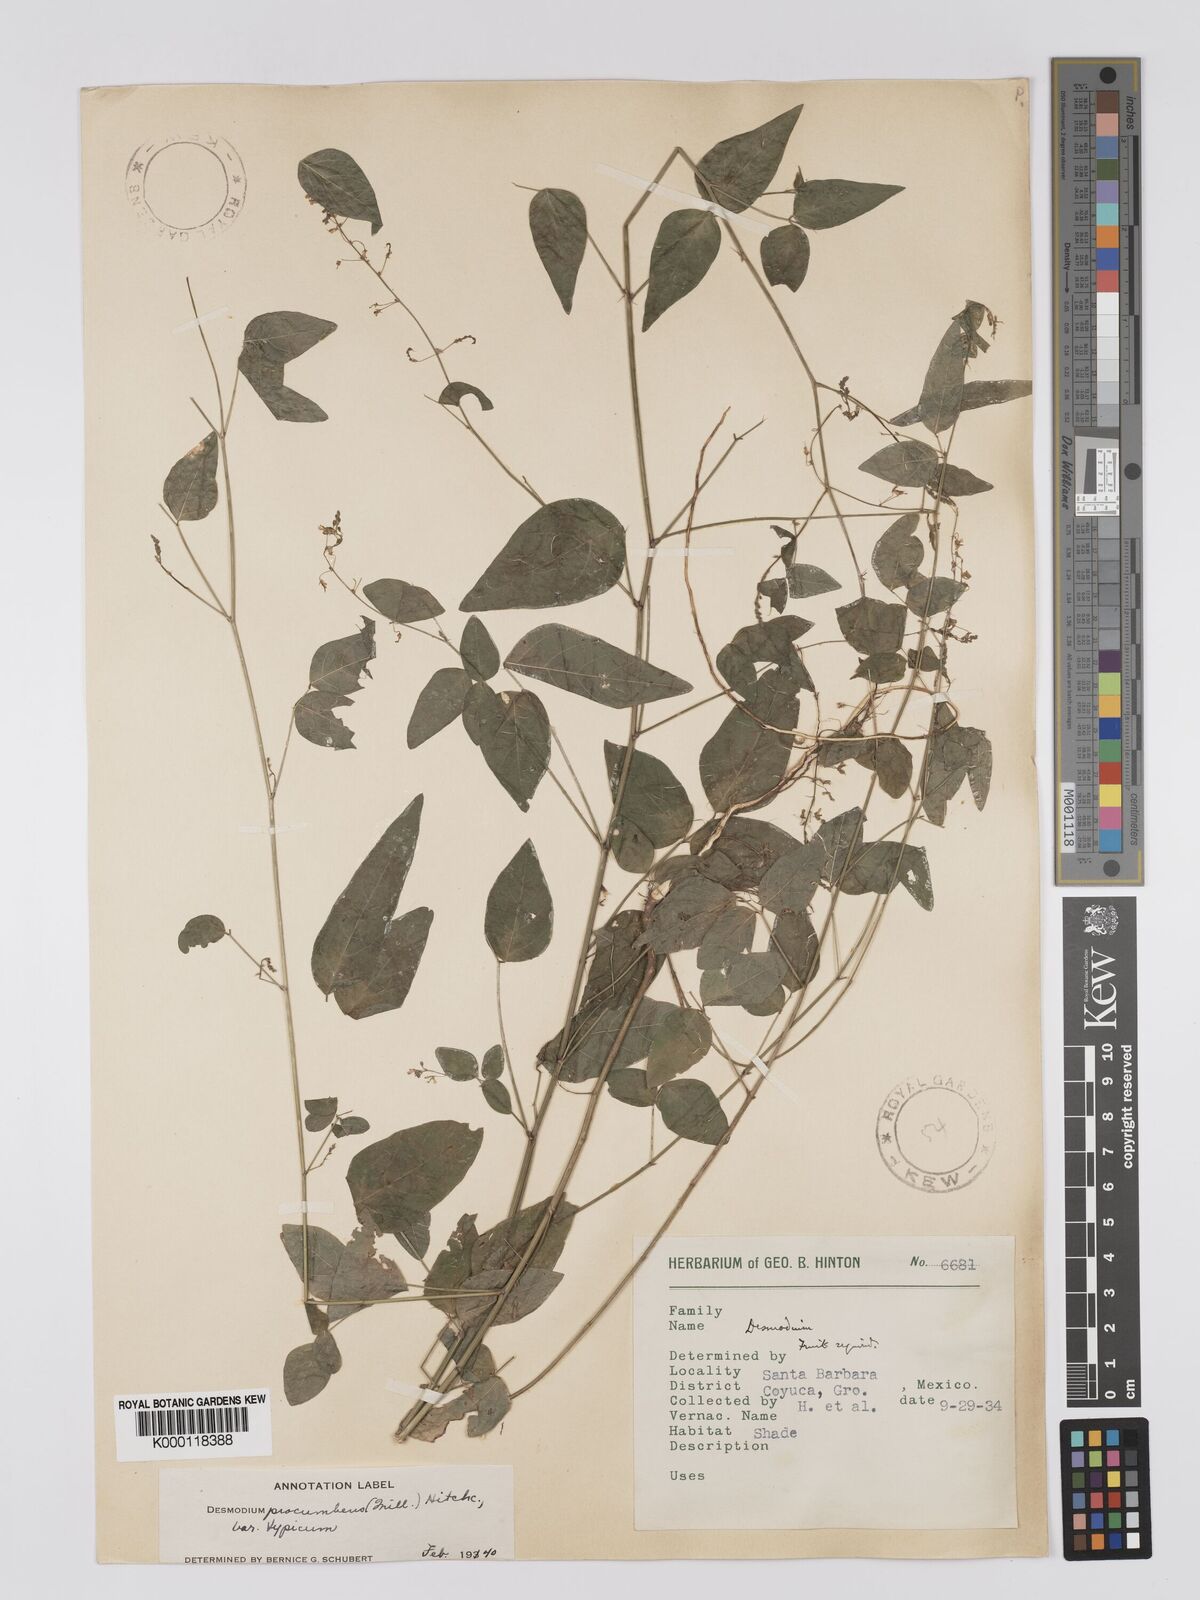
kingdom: Plantae
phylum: Tracheophyta
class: Magnoliopsida
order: Fabales
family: Fabaceae
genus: Desmodium
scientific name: Desmodium procumbens
